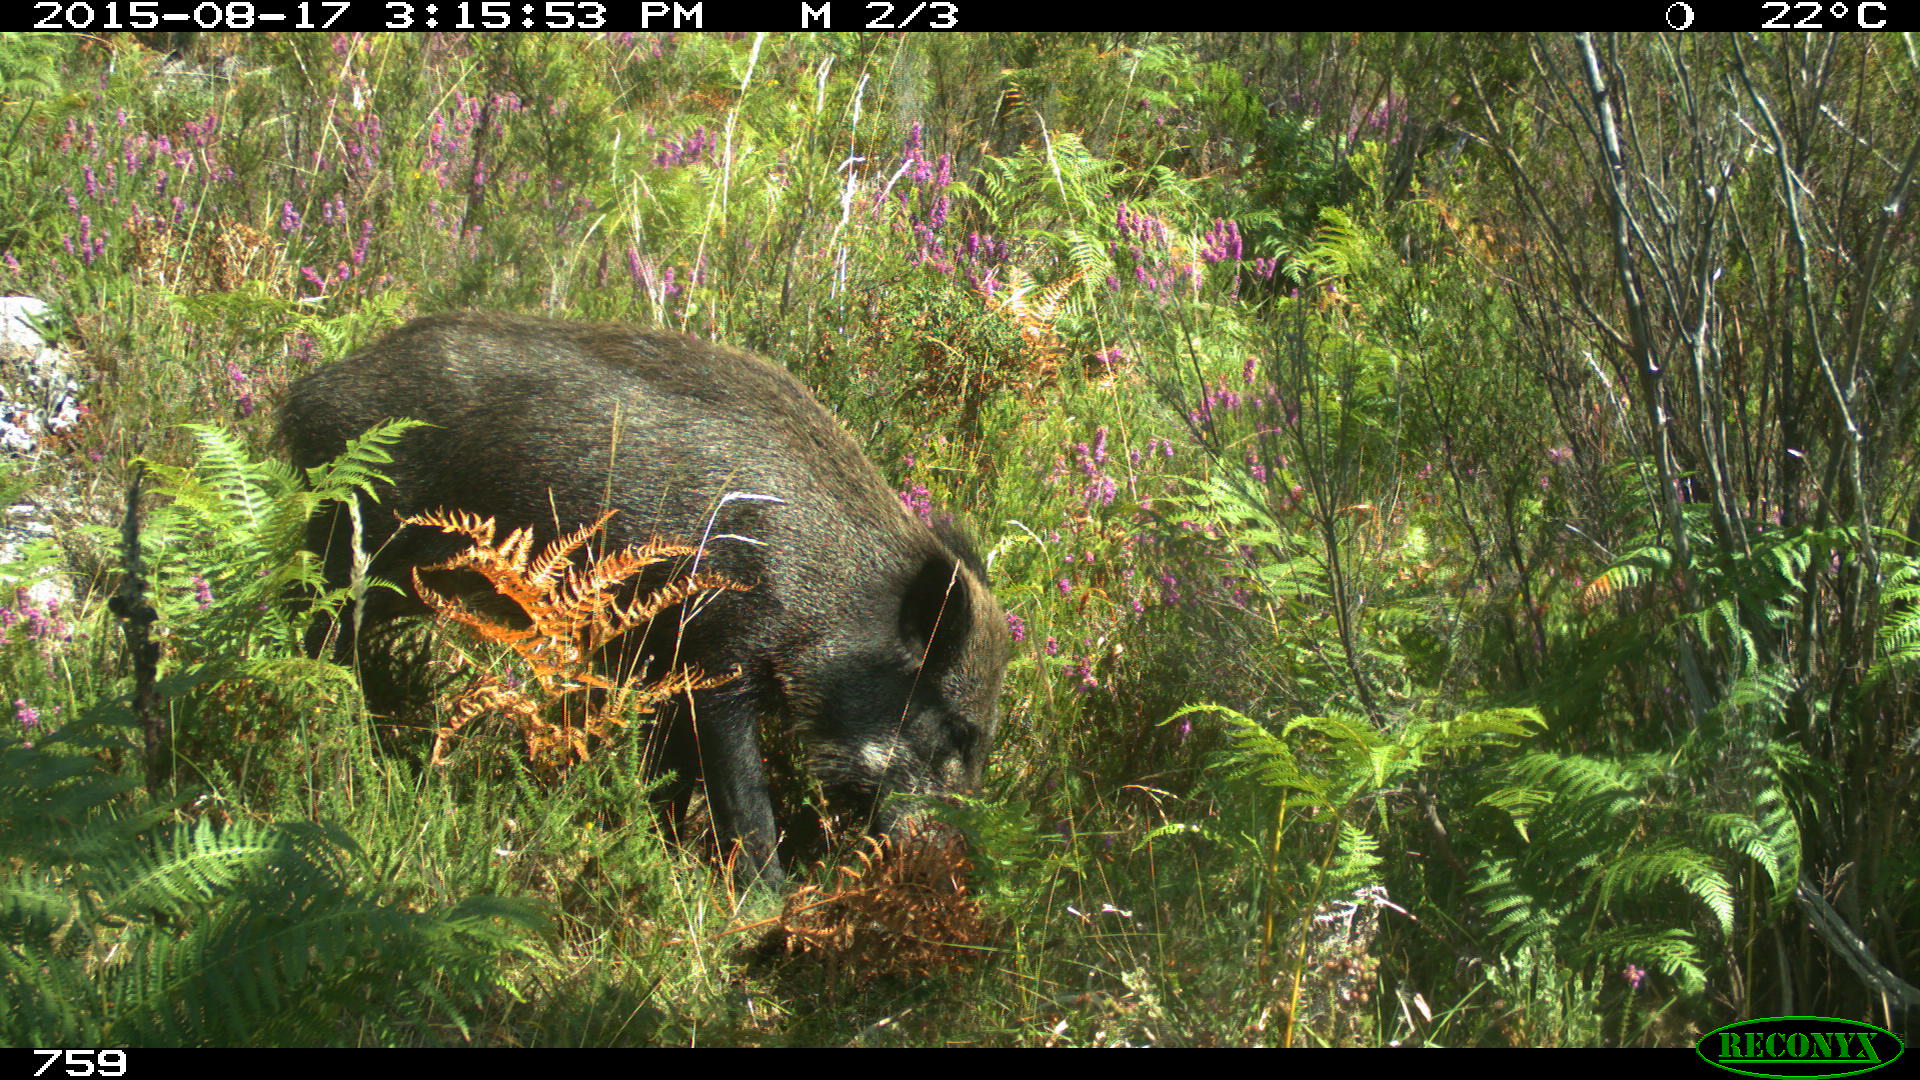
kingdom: Animalia
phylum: Chordata
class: Mammalia
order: Artiodactyla
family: Suidae
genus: Sus
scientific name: Sus scrofa
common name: Wild boar
